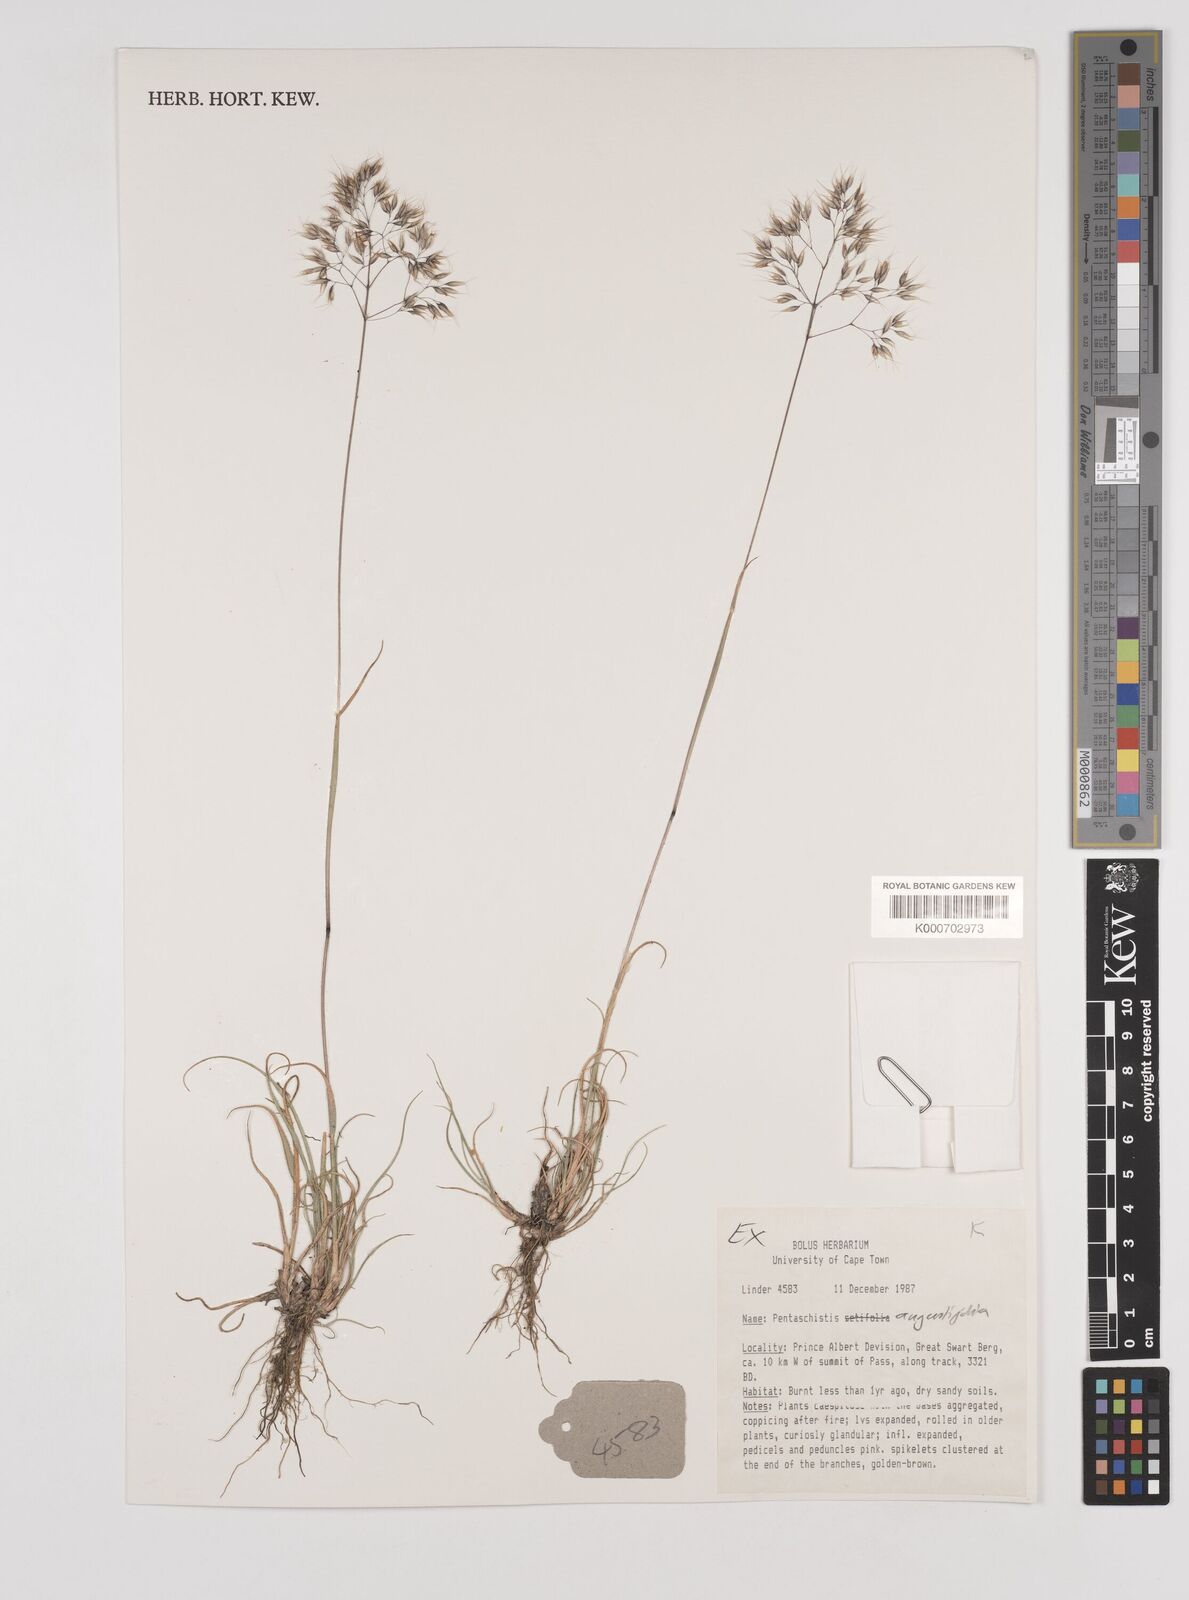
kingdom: Plantae
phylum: Tracheophyta
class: Liliopsida
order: Poales
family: Poaceae
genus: Pentameris
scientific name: Pentameris pallida
